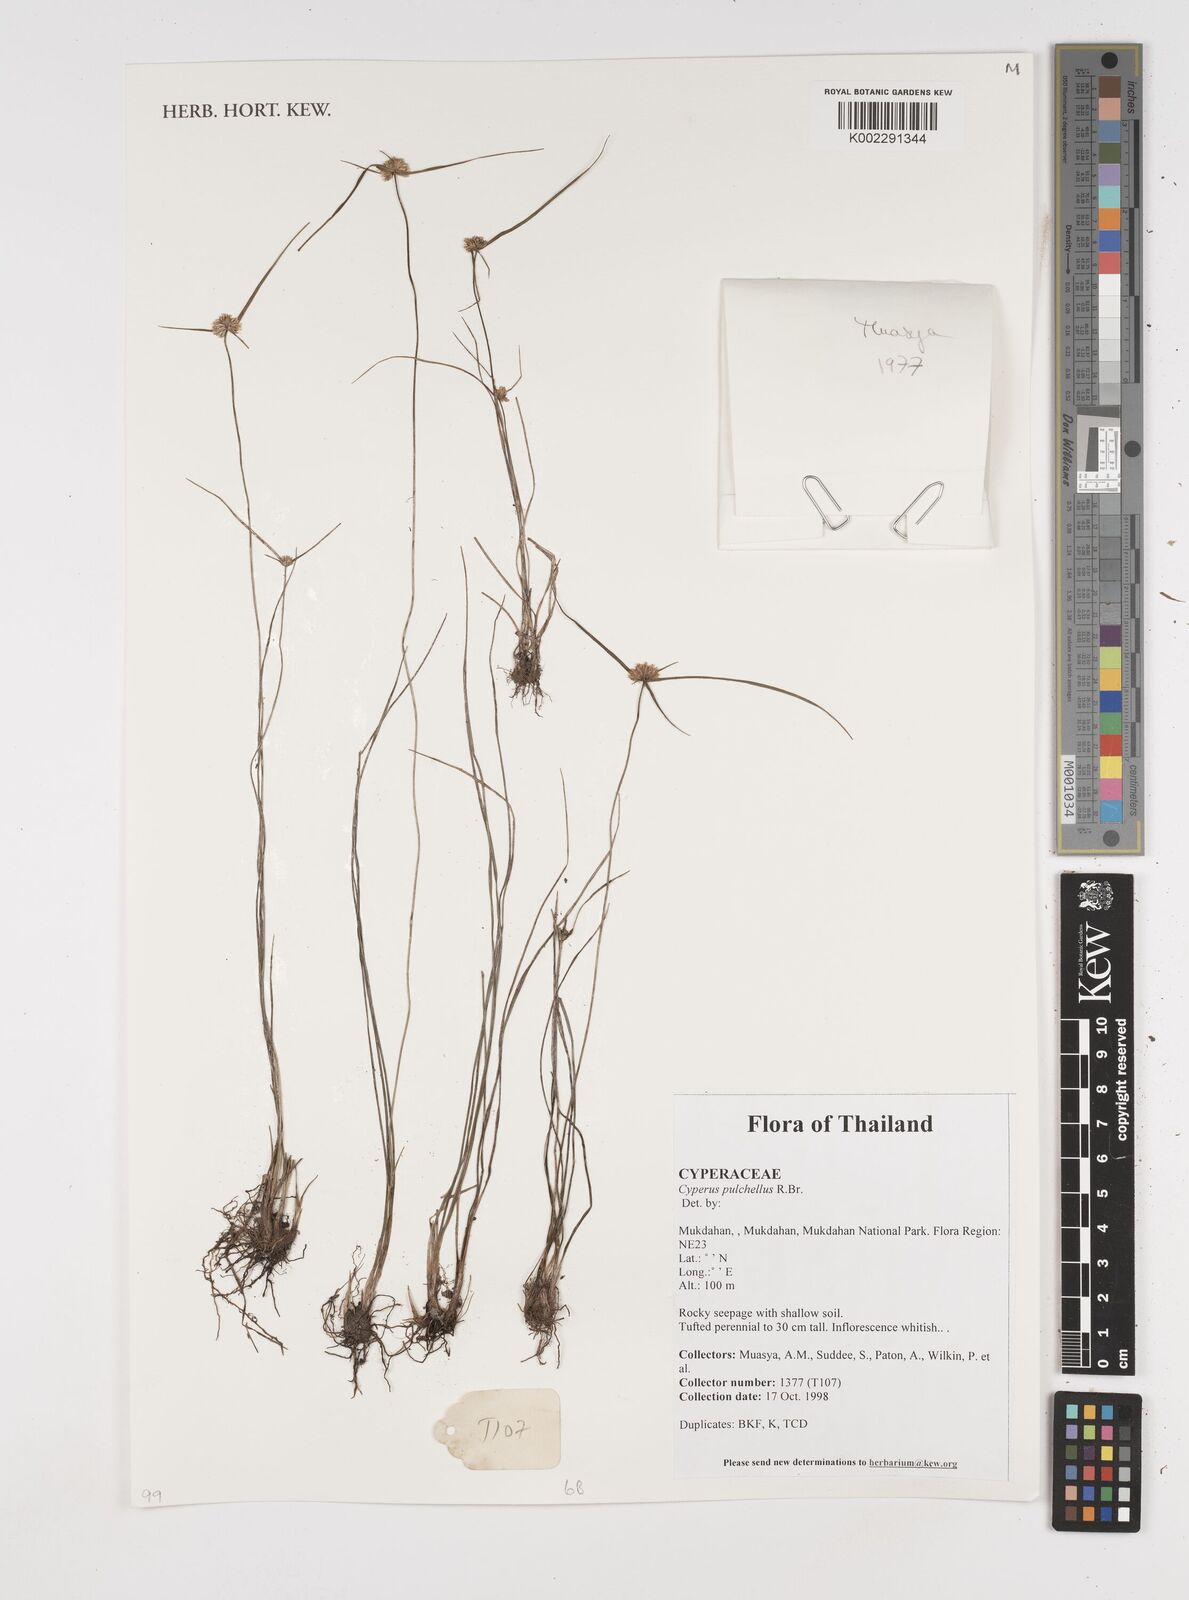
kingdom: Plantae
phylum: Tracheophyta
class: Liliopsida
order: Poales
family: Cyperaceae
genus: Cyperus
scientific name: Cyperus pulchellus
